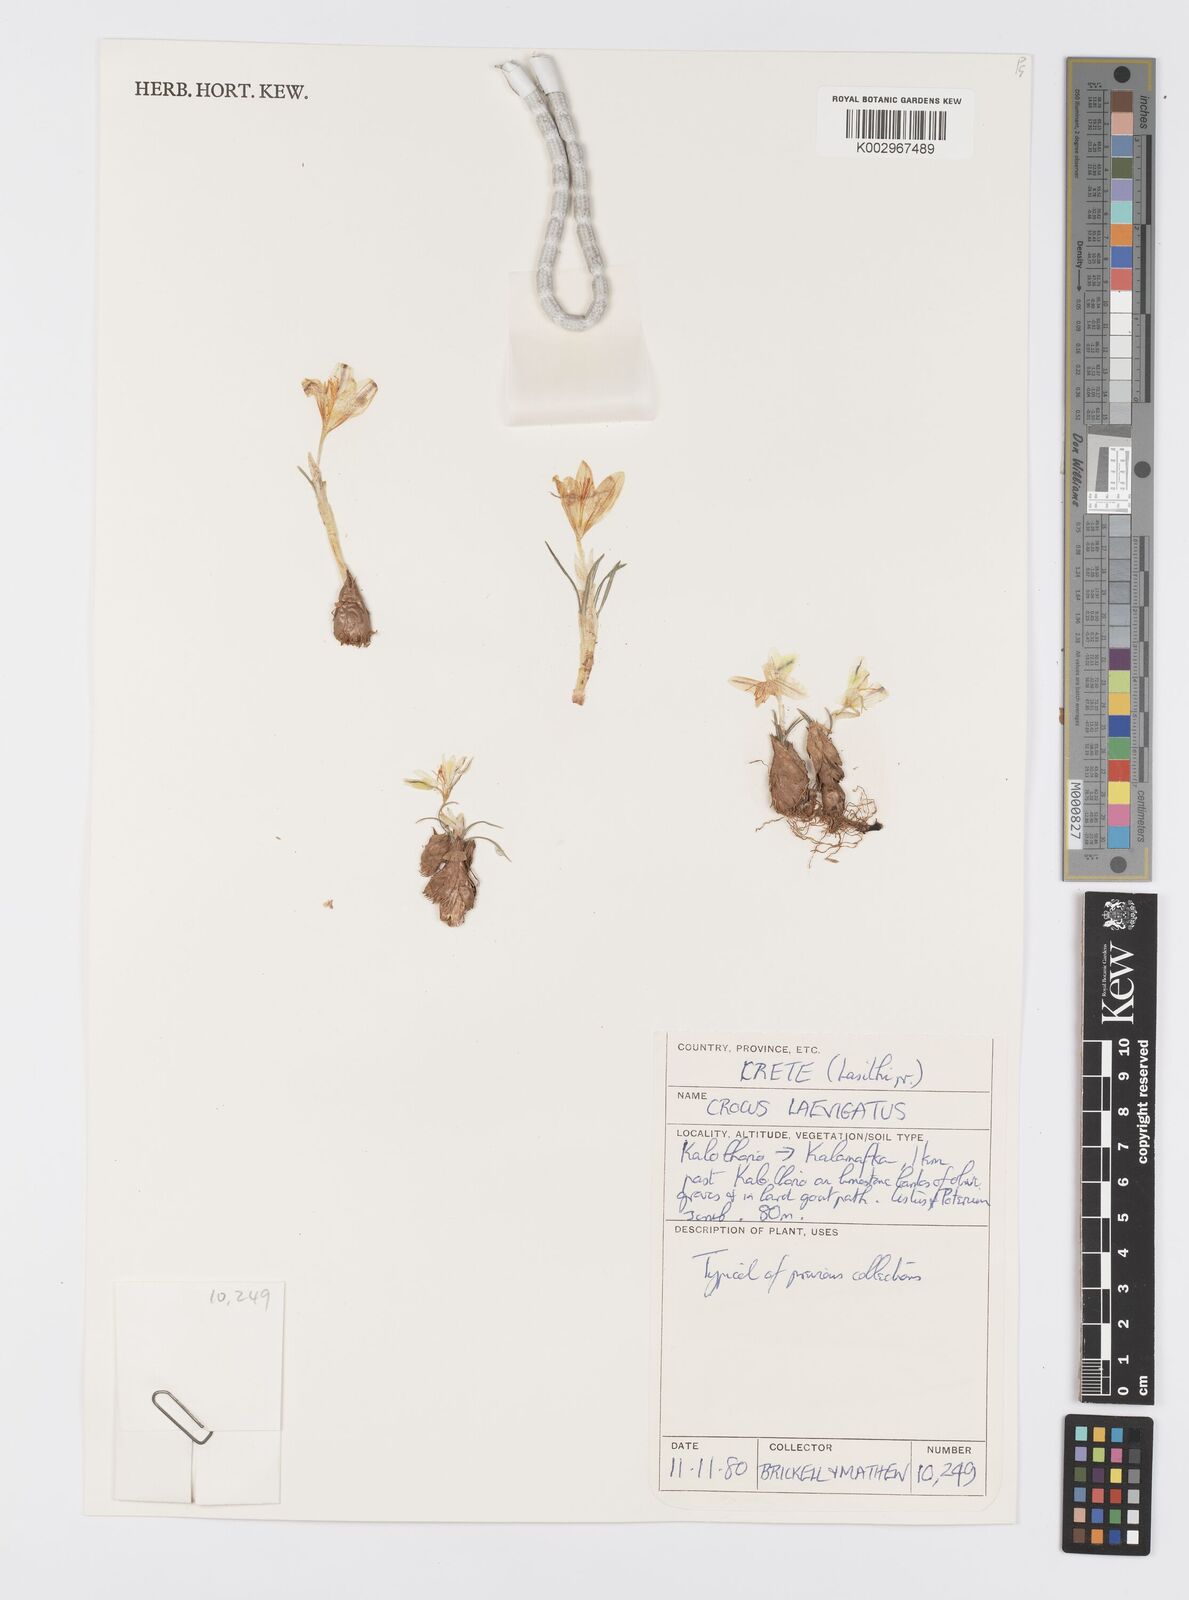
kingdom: Plantae
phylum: Tracheophyta
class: Liliopsida
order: Asparagales
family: Iridaceae
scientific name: Iridaceae
